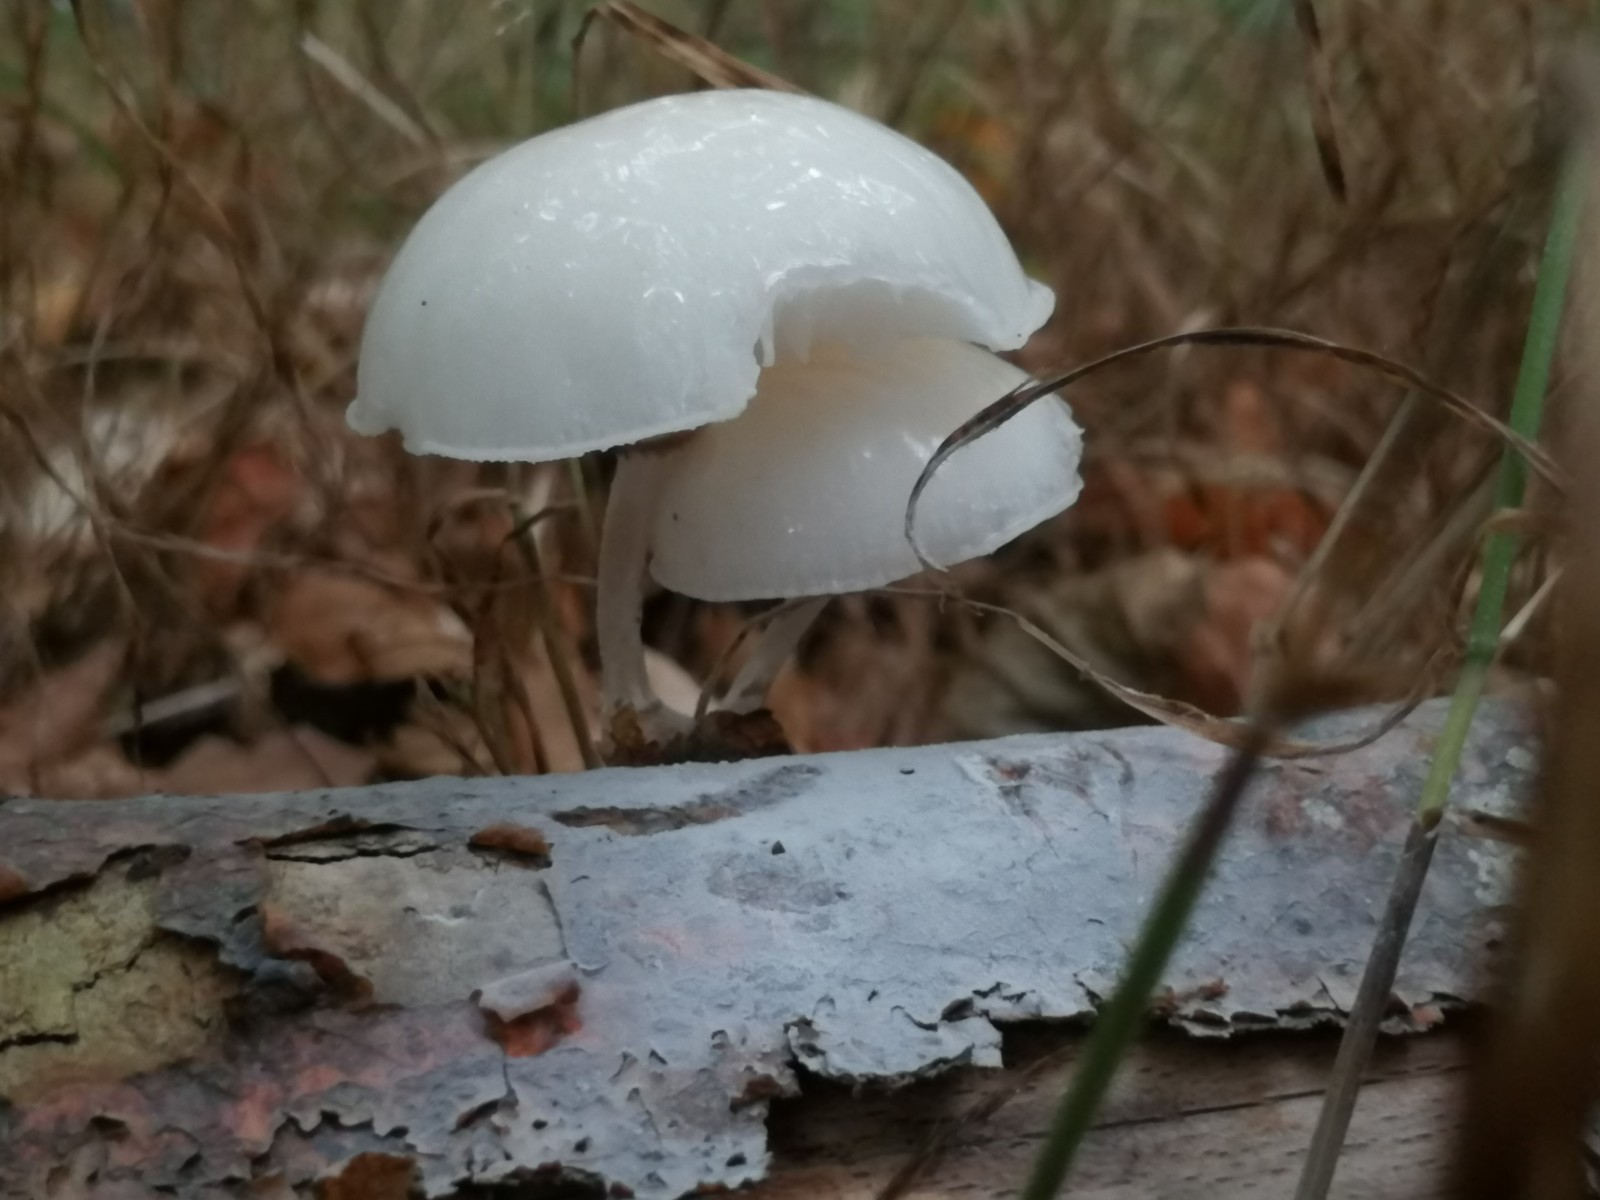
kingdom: Fungi
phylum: Basidiomycota
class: Agaricomycetes
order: Agaricales
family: Physalacriaceae
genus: Mucidula
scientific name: Mucidula mucida
